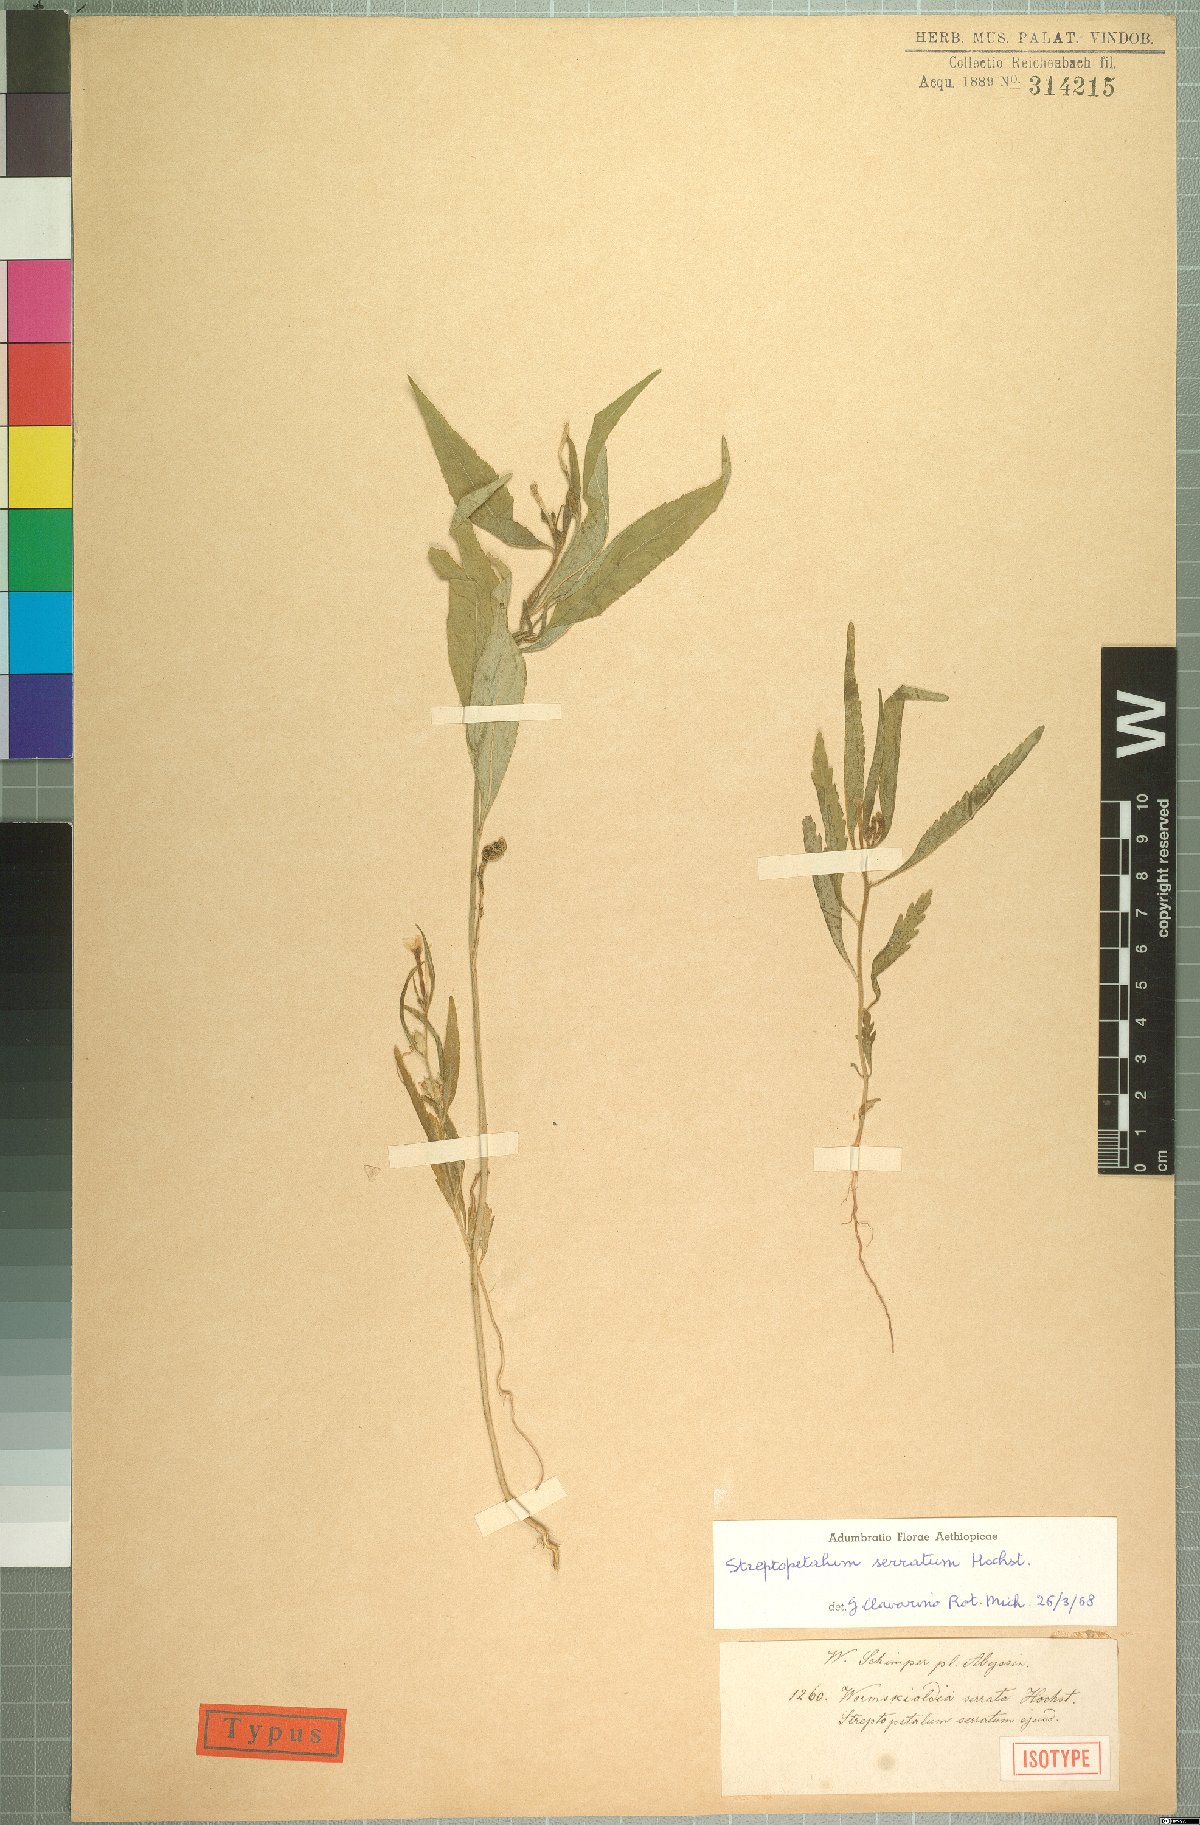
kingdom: Plantae
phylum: Tracheophyta
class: Magnoliopsida
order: Malpighiales
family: Turneraceae
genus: Streptopetalum
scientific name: Streptopetalum serratum
